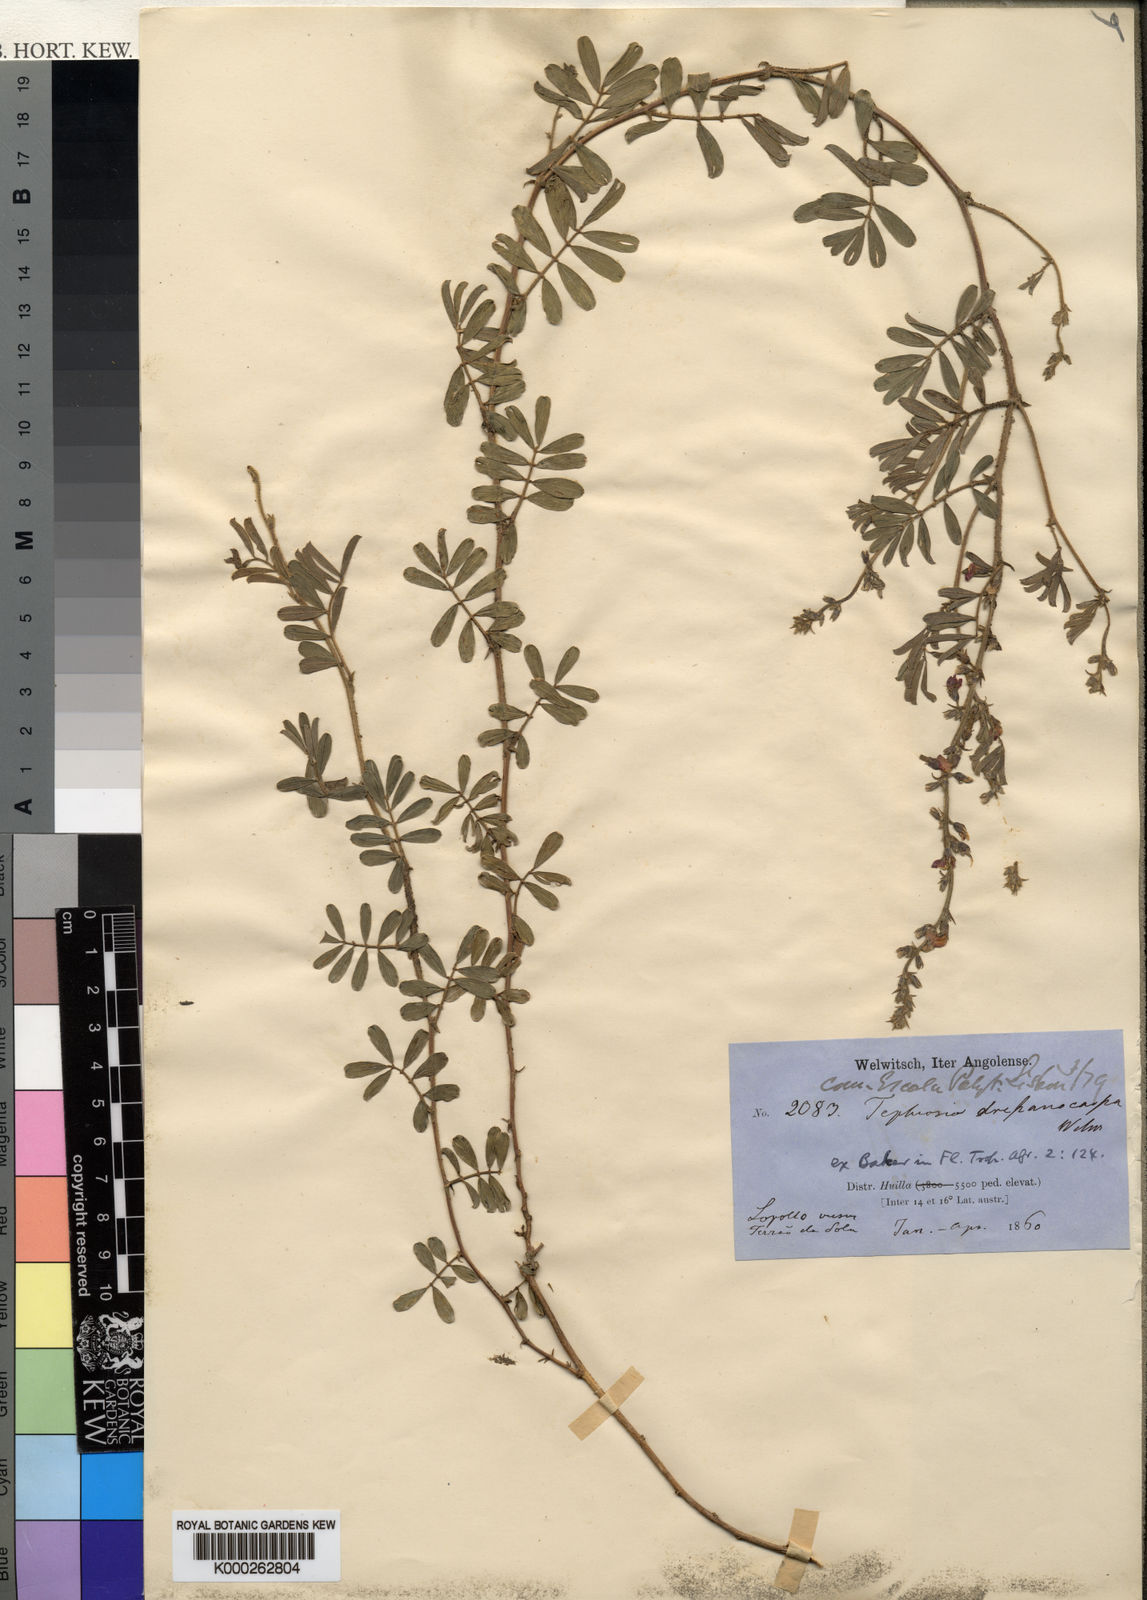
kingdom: Plantae
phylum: Tracheophyta
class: Magnoliopsida
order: Fabales
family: Fabaceae
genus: Tephrosia
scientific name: Tephrosia
